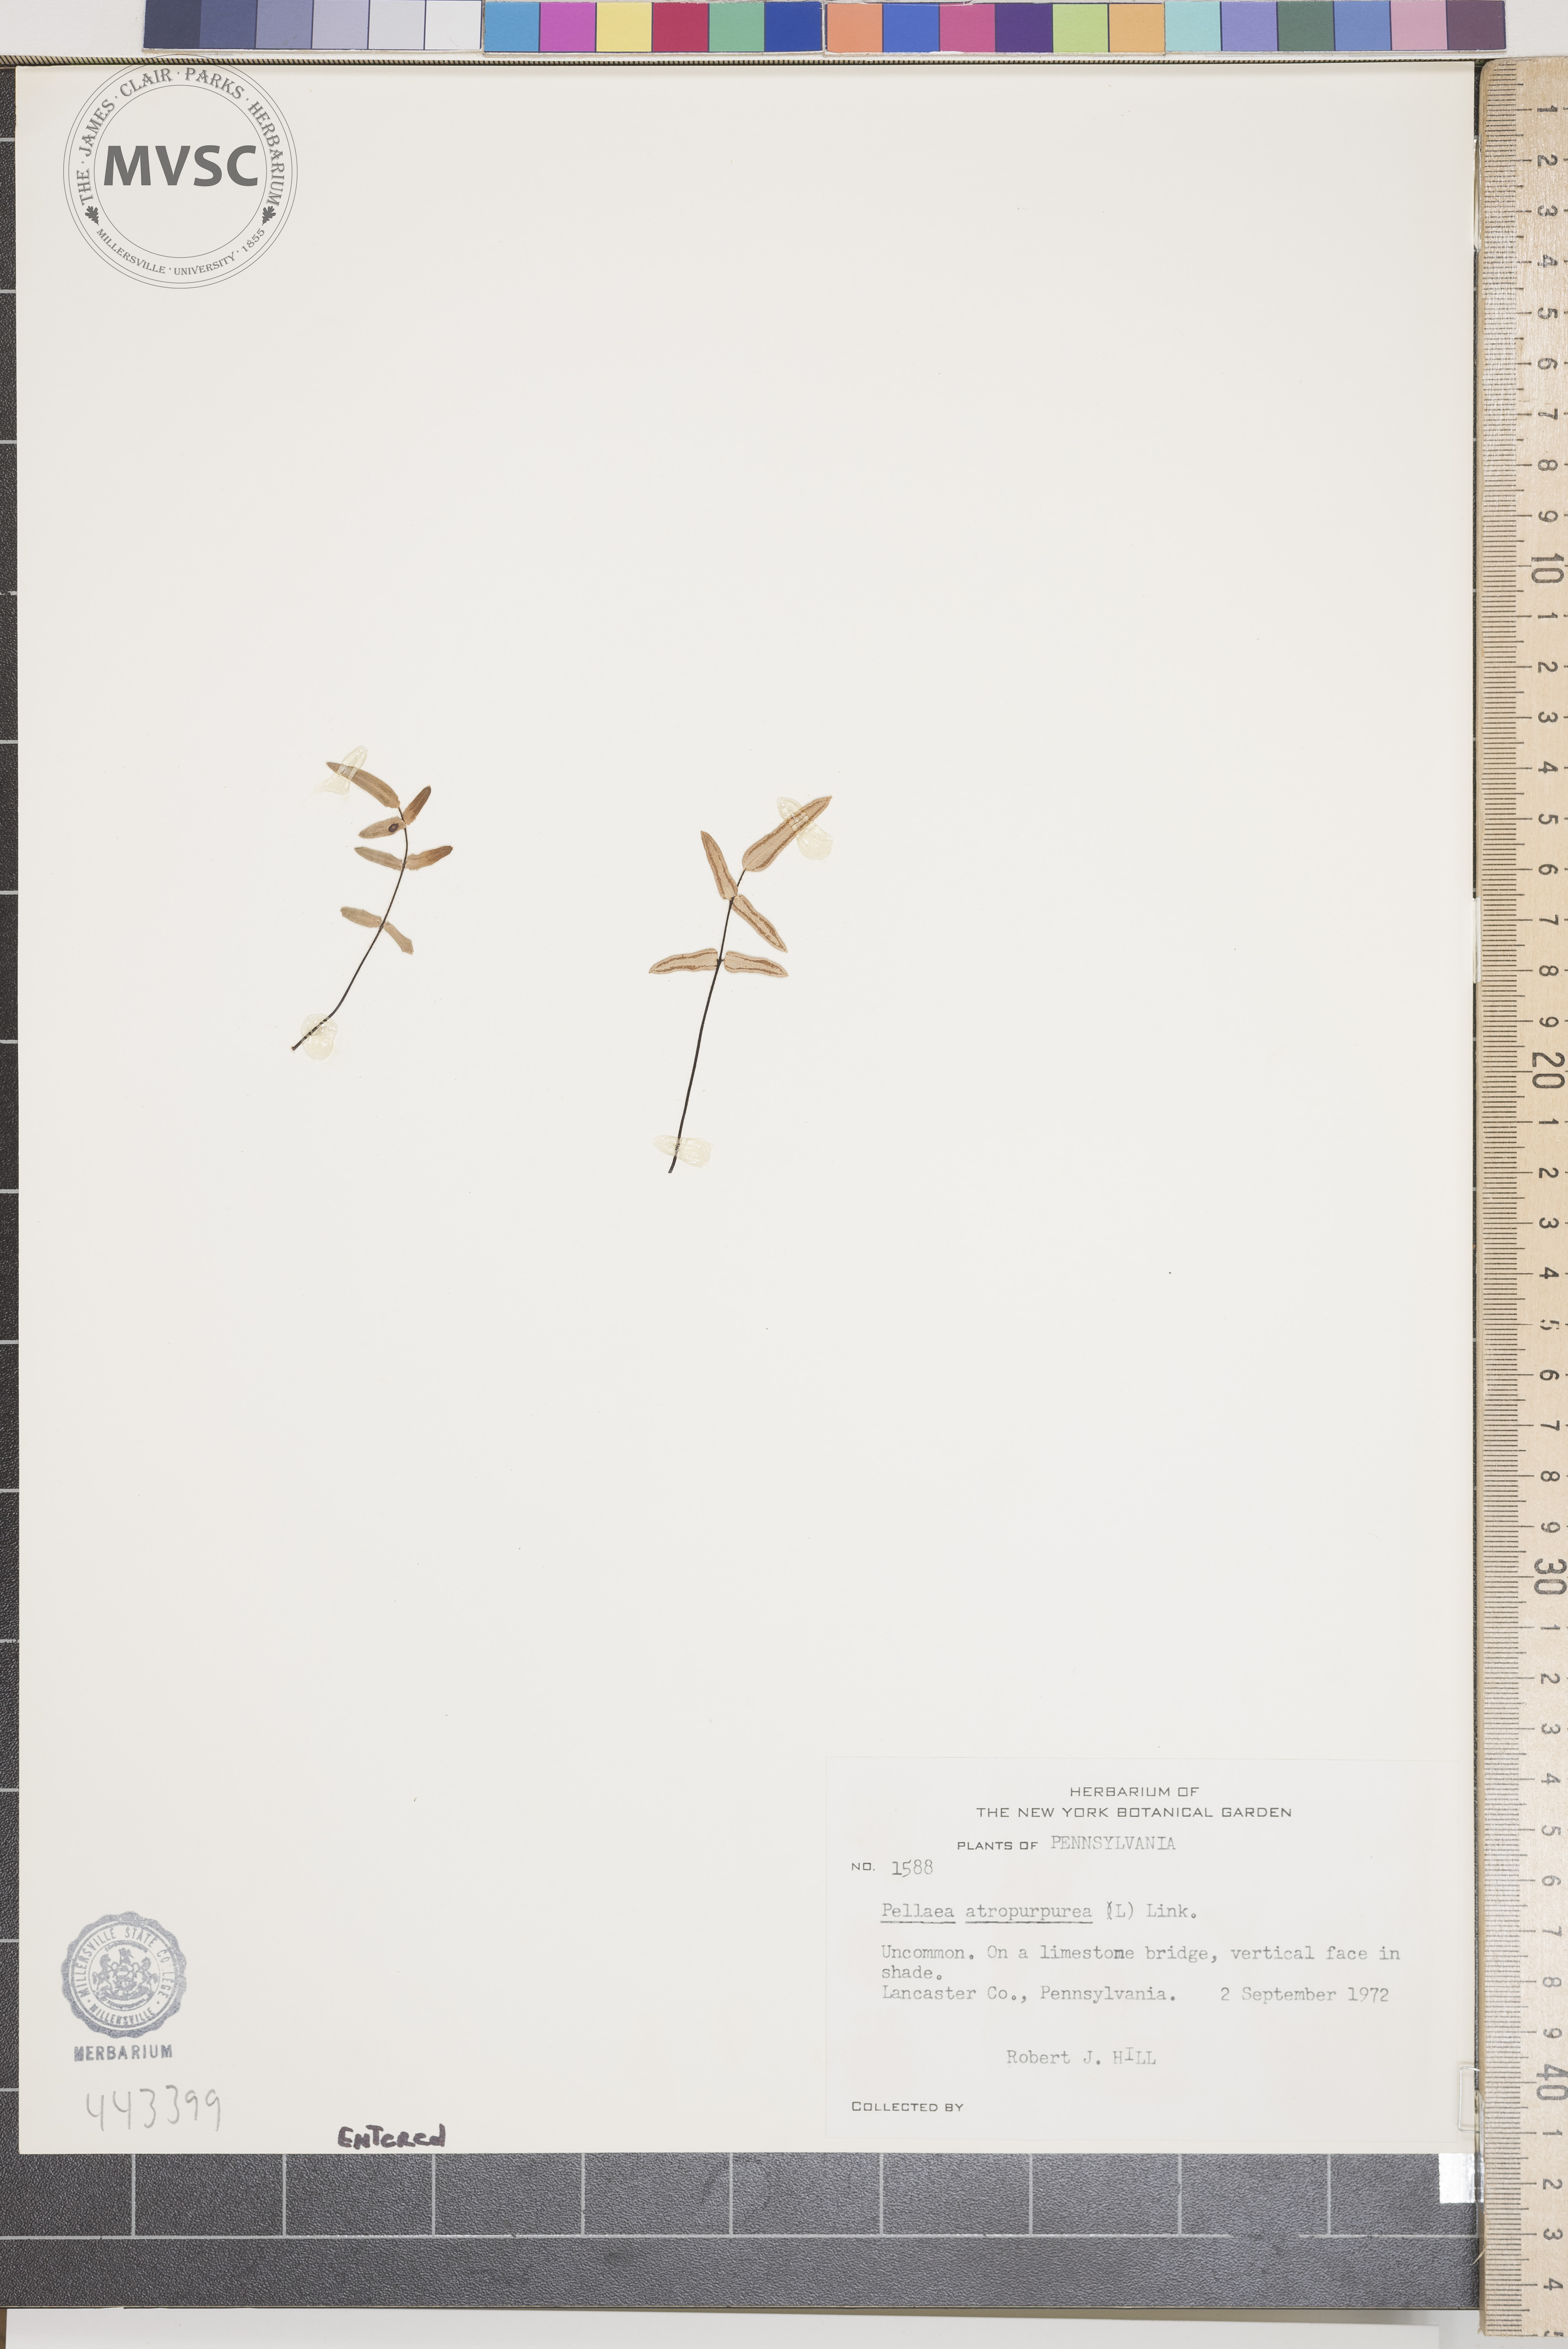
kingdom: Plantae
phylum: Tracheophyta
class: Polypodiopsida
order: Polypodiales
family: Pteridaceae
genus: Pellaea
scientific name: Pellaea atropurpurea
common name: Hairy cliffbrake
